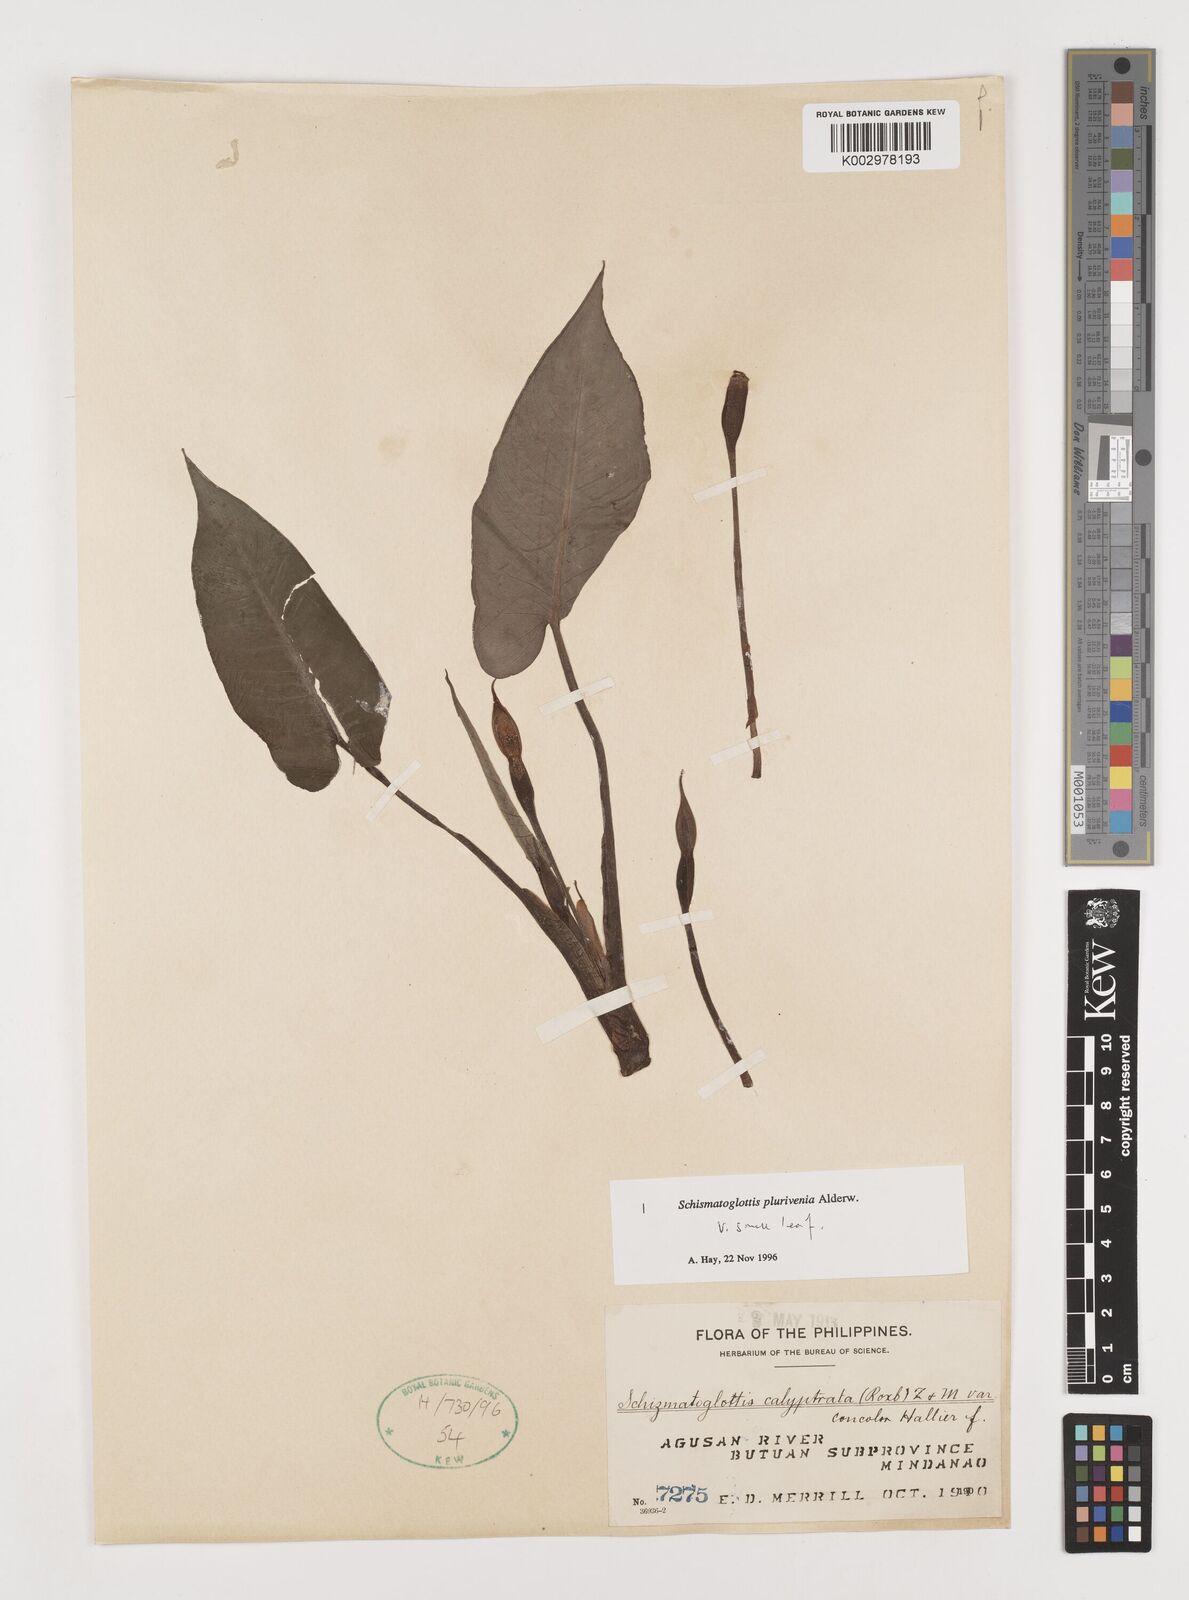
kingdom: Plantae
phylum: Tracheophyta
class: Liliopsida
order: Alismatales
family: Araceae
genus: Schismatoglottis
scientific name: Schismatoglottis plurivenia
